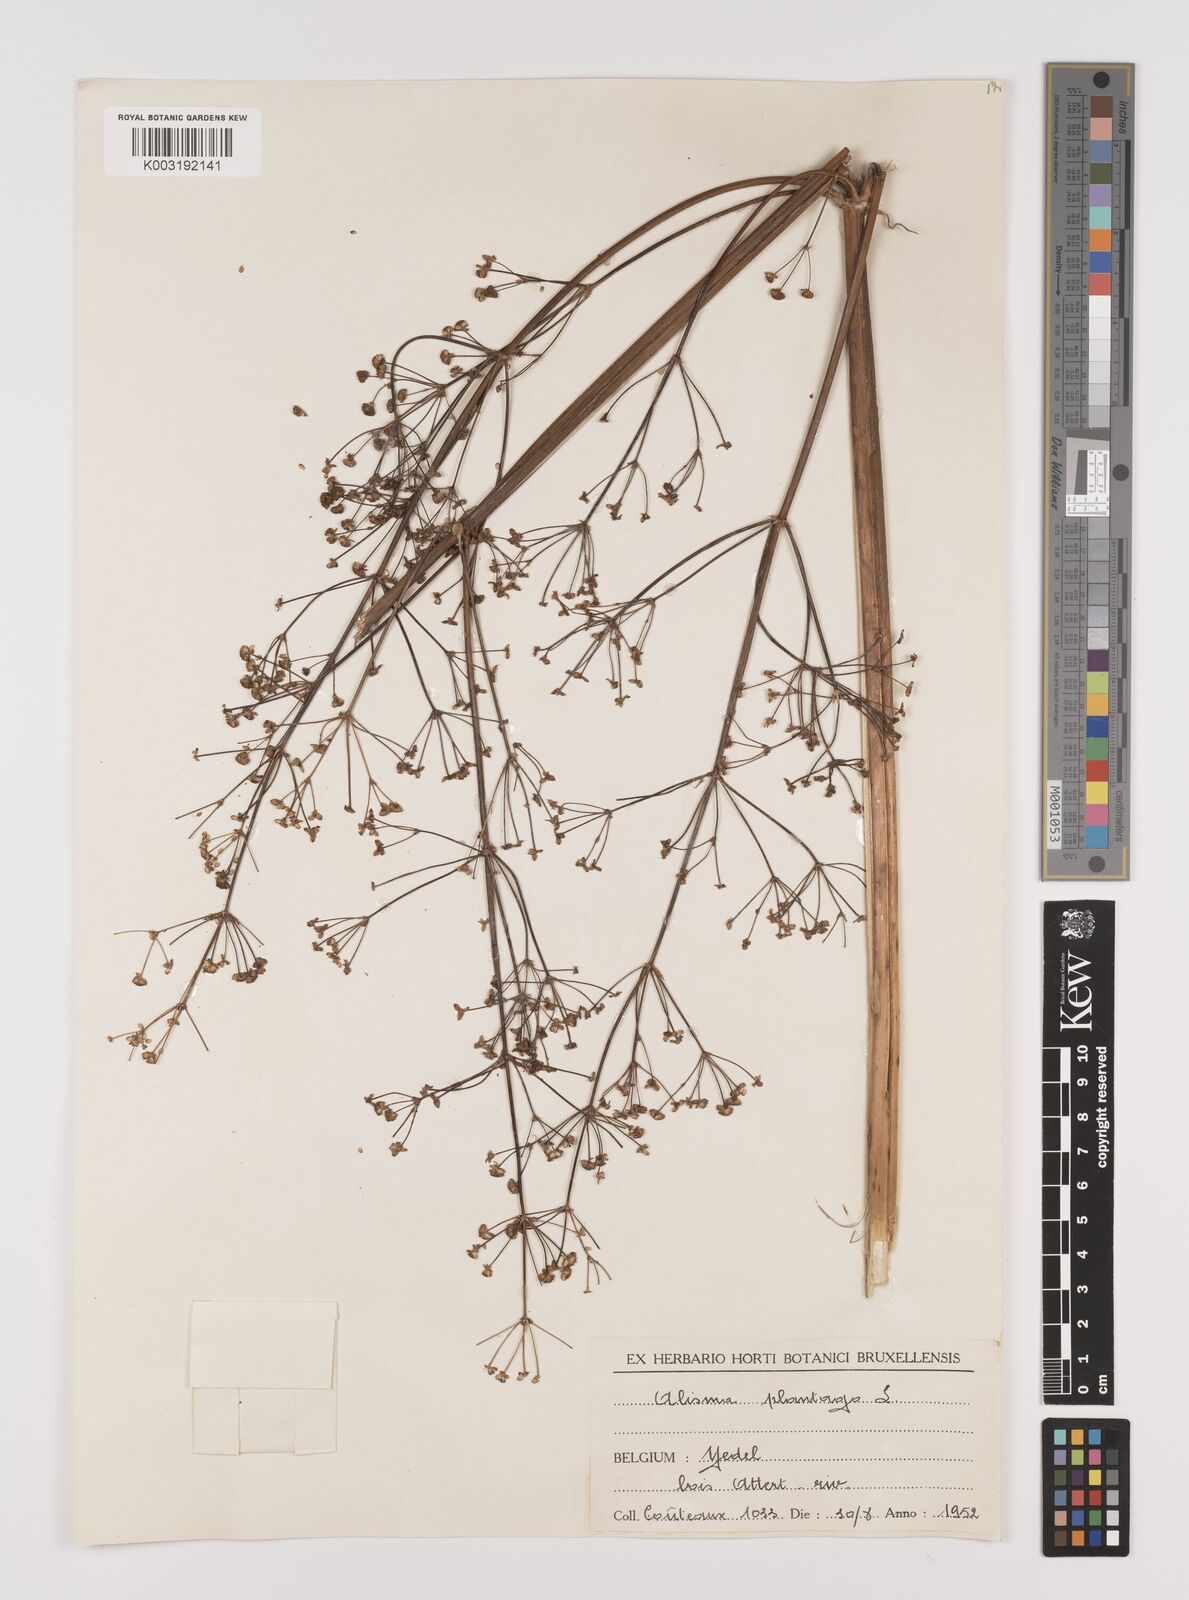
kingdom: Plantae
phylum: Tracheophyta
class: Liliopsida
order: Alismatales
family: Alismataceae
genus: Alisma
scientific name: Alisma plantago-aquatica
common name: Water-plantain
